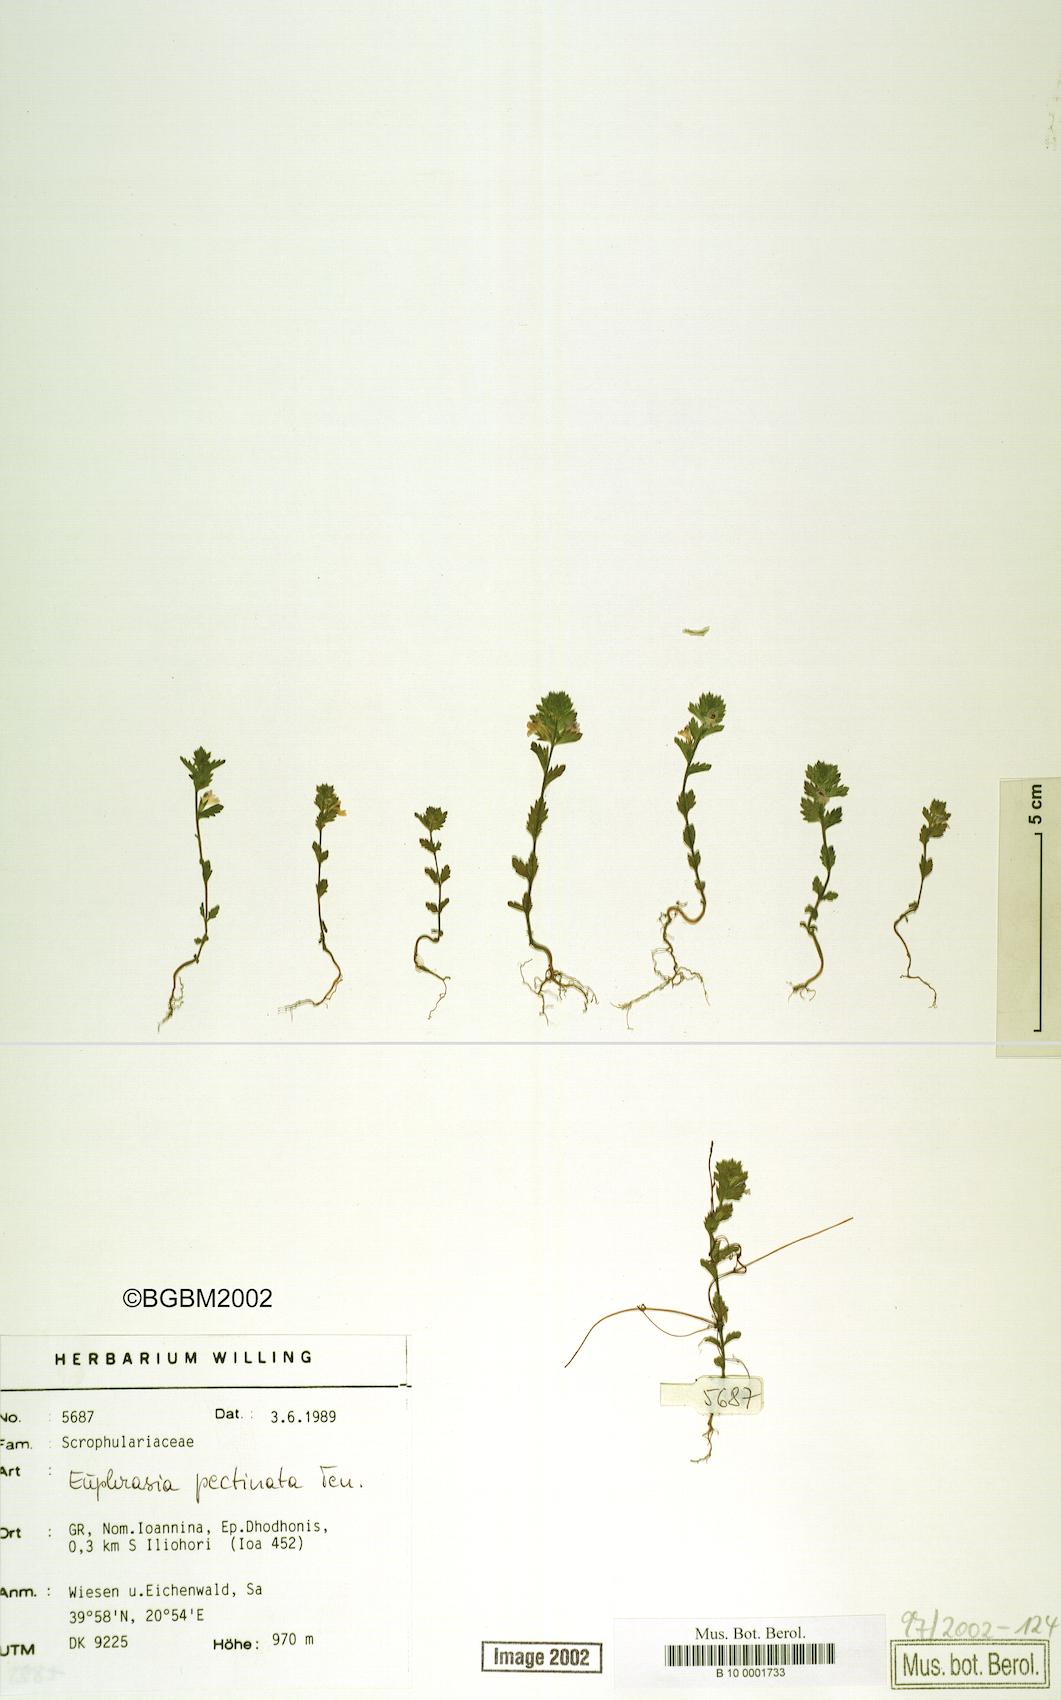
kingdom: Plantae
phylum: Tracheophyta
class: Magnoliopsida
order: Lamiales
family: Orobanchaceae
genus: Euphrasia
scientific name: Euphrasia pectinata
